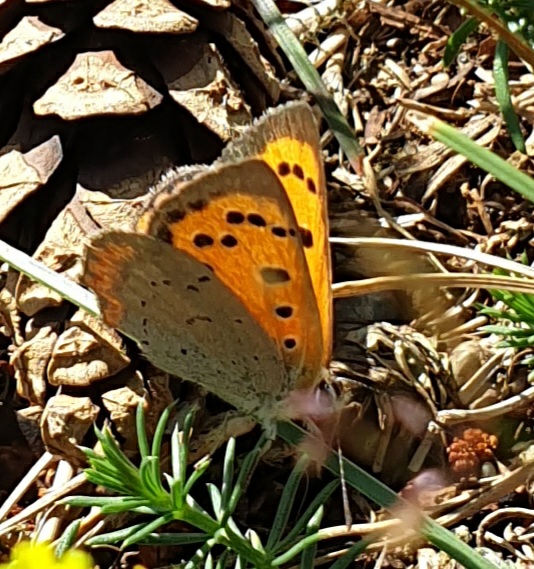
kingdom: Animalia
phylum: Arthropoda
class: Insecta
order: Lepidoptera
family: Lycaenidae
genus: Lycaena
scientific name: Lycaena phlaeas
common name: Lille ildfugl
